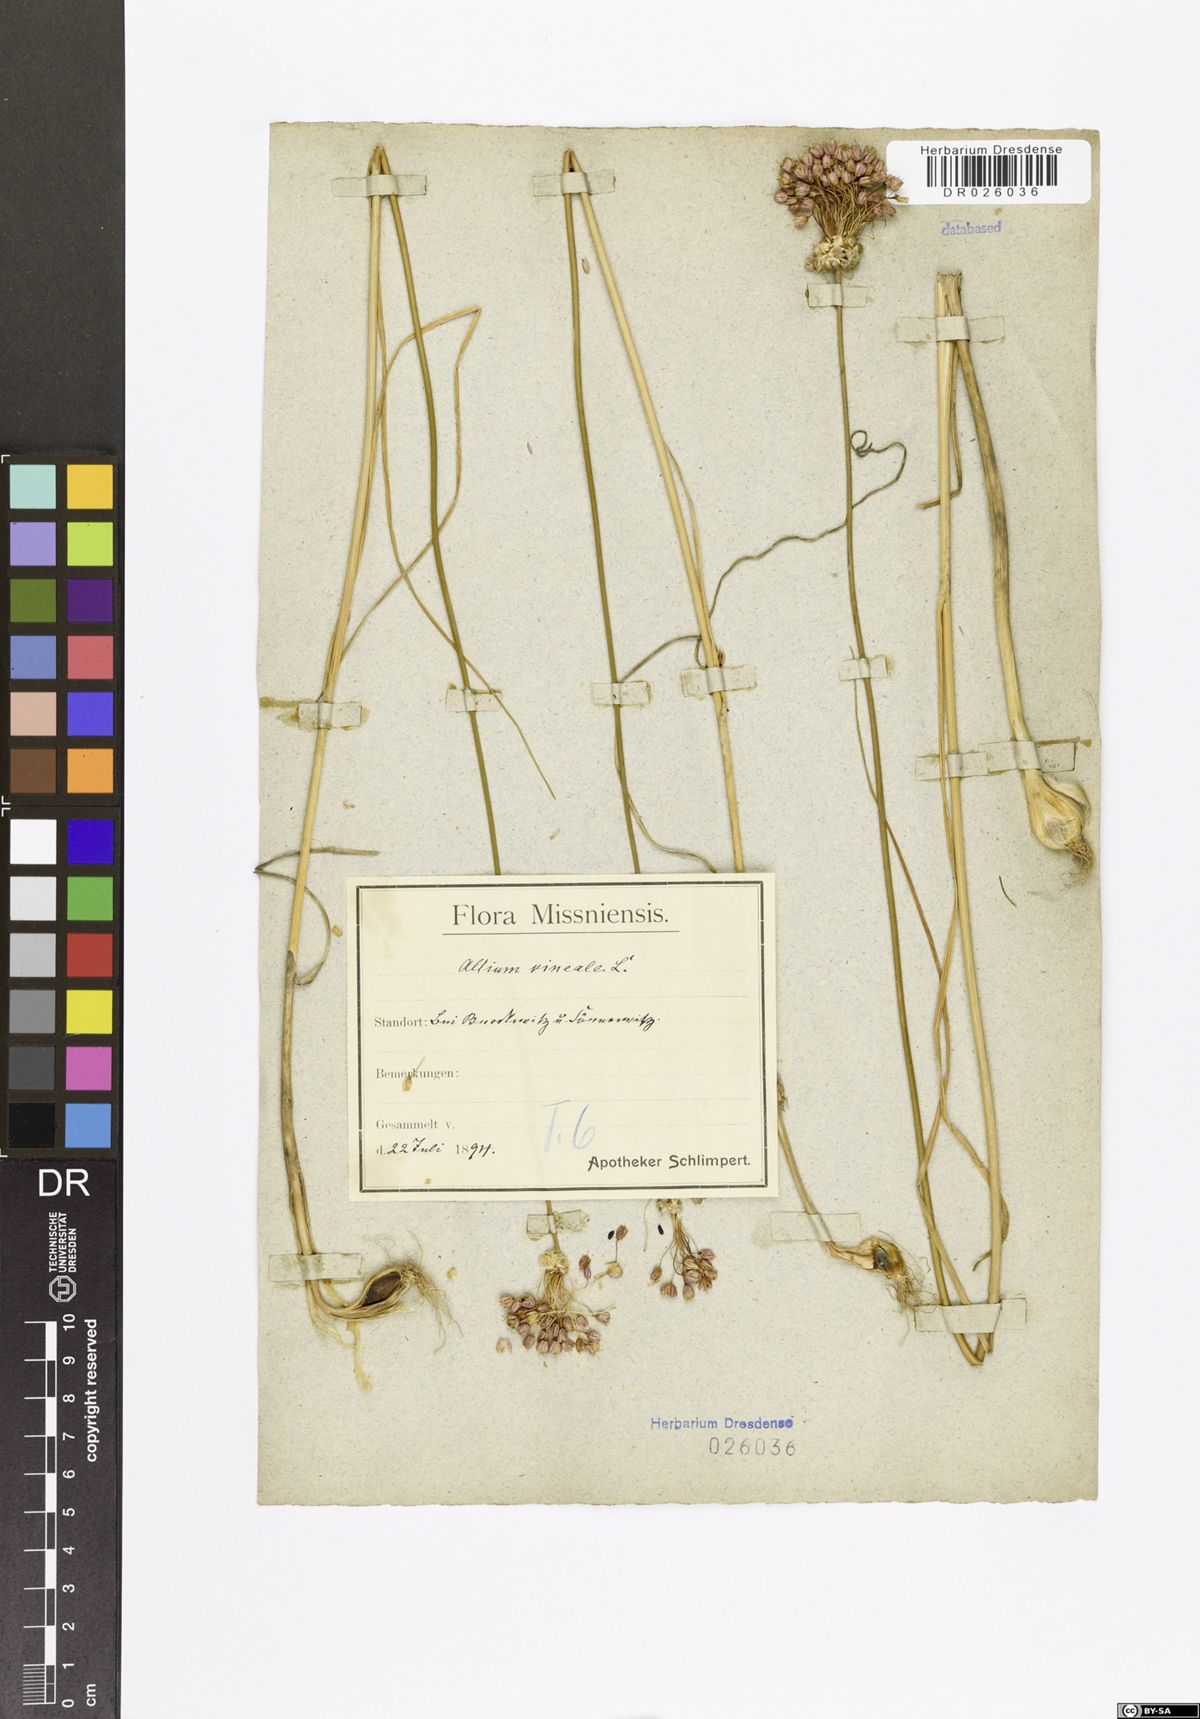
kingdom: Plantae
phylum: Tracheophyta
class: Liliopsida
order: Asparagales
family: Amaryllidaceae
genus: Allium
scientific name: Allium vineale
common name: Crow garlic
